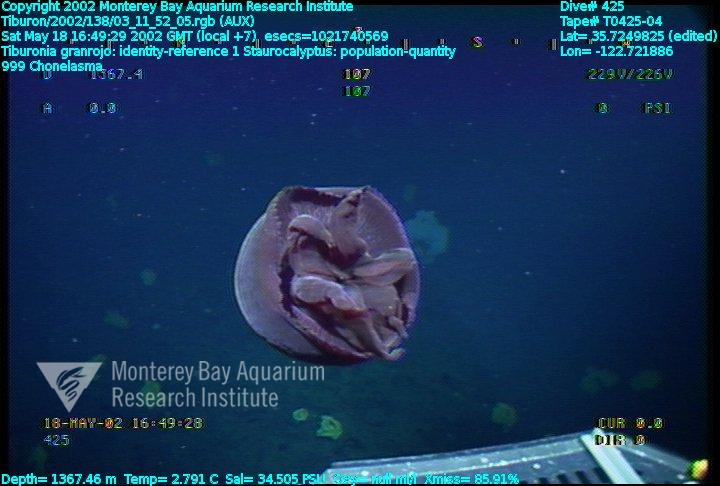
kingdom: Animalia
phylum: Porifera
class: Hexactinellida
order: Sceptrulophora
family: Euretidae
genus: Chonelasma
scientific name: Chonelasma
